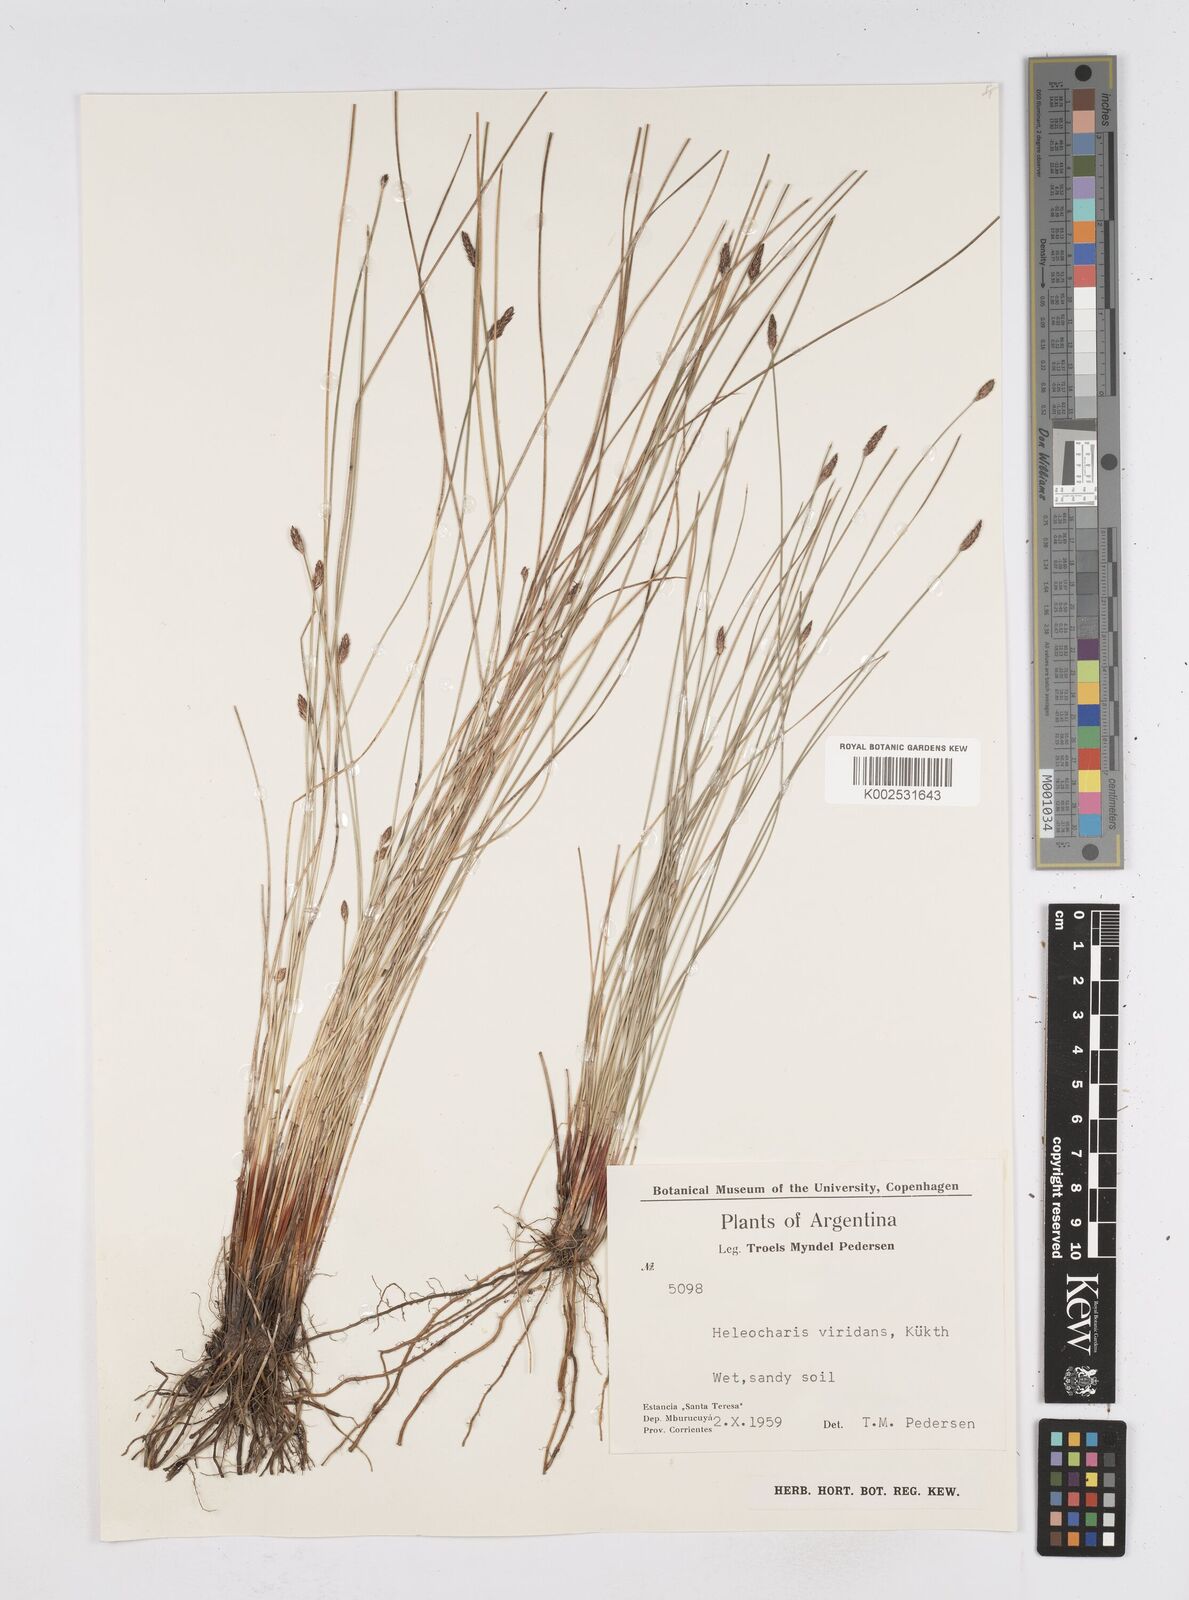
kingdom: Plantae
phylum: Tracheophyta
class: Liliopsida
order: Poales
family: Cyperaceae
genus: Eleocharis
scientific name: Eleocharis viridans
